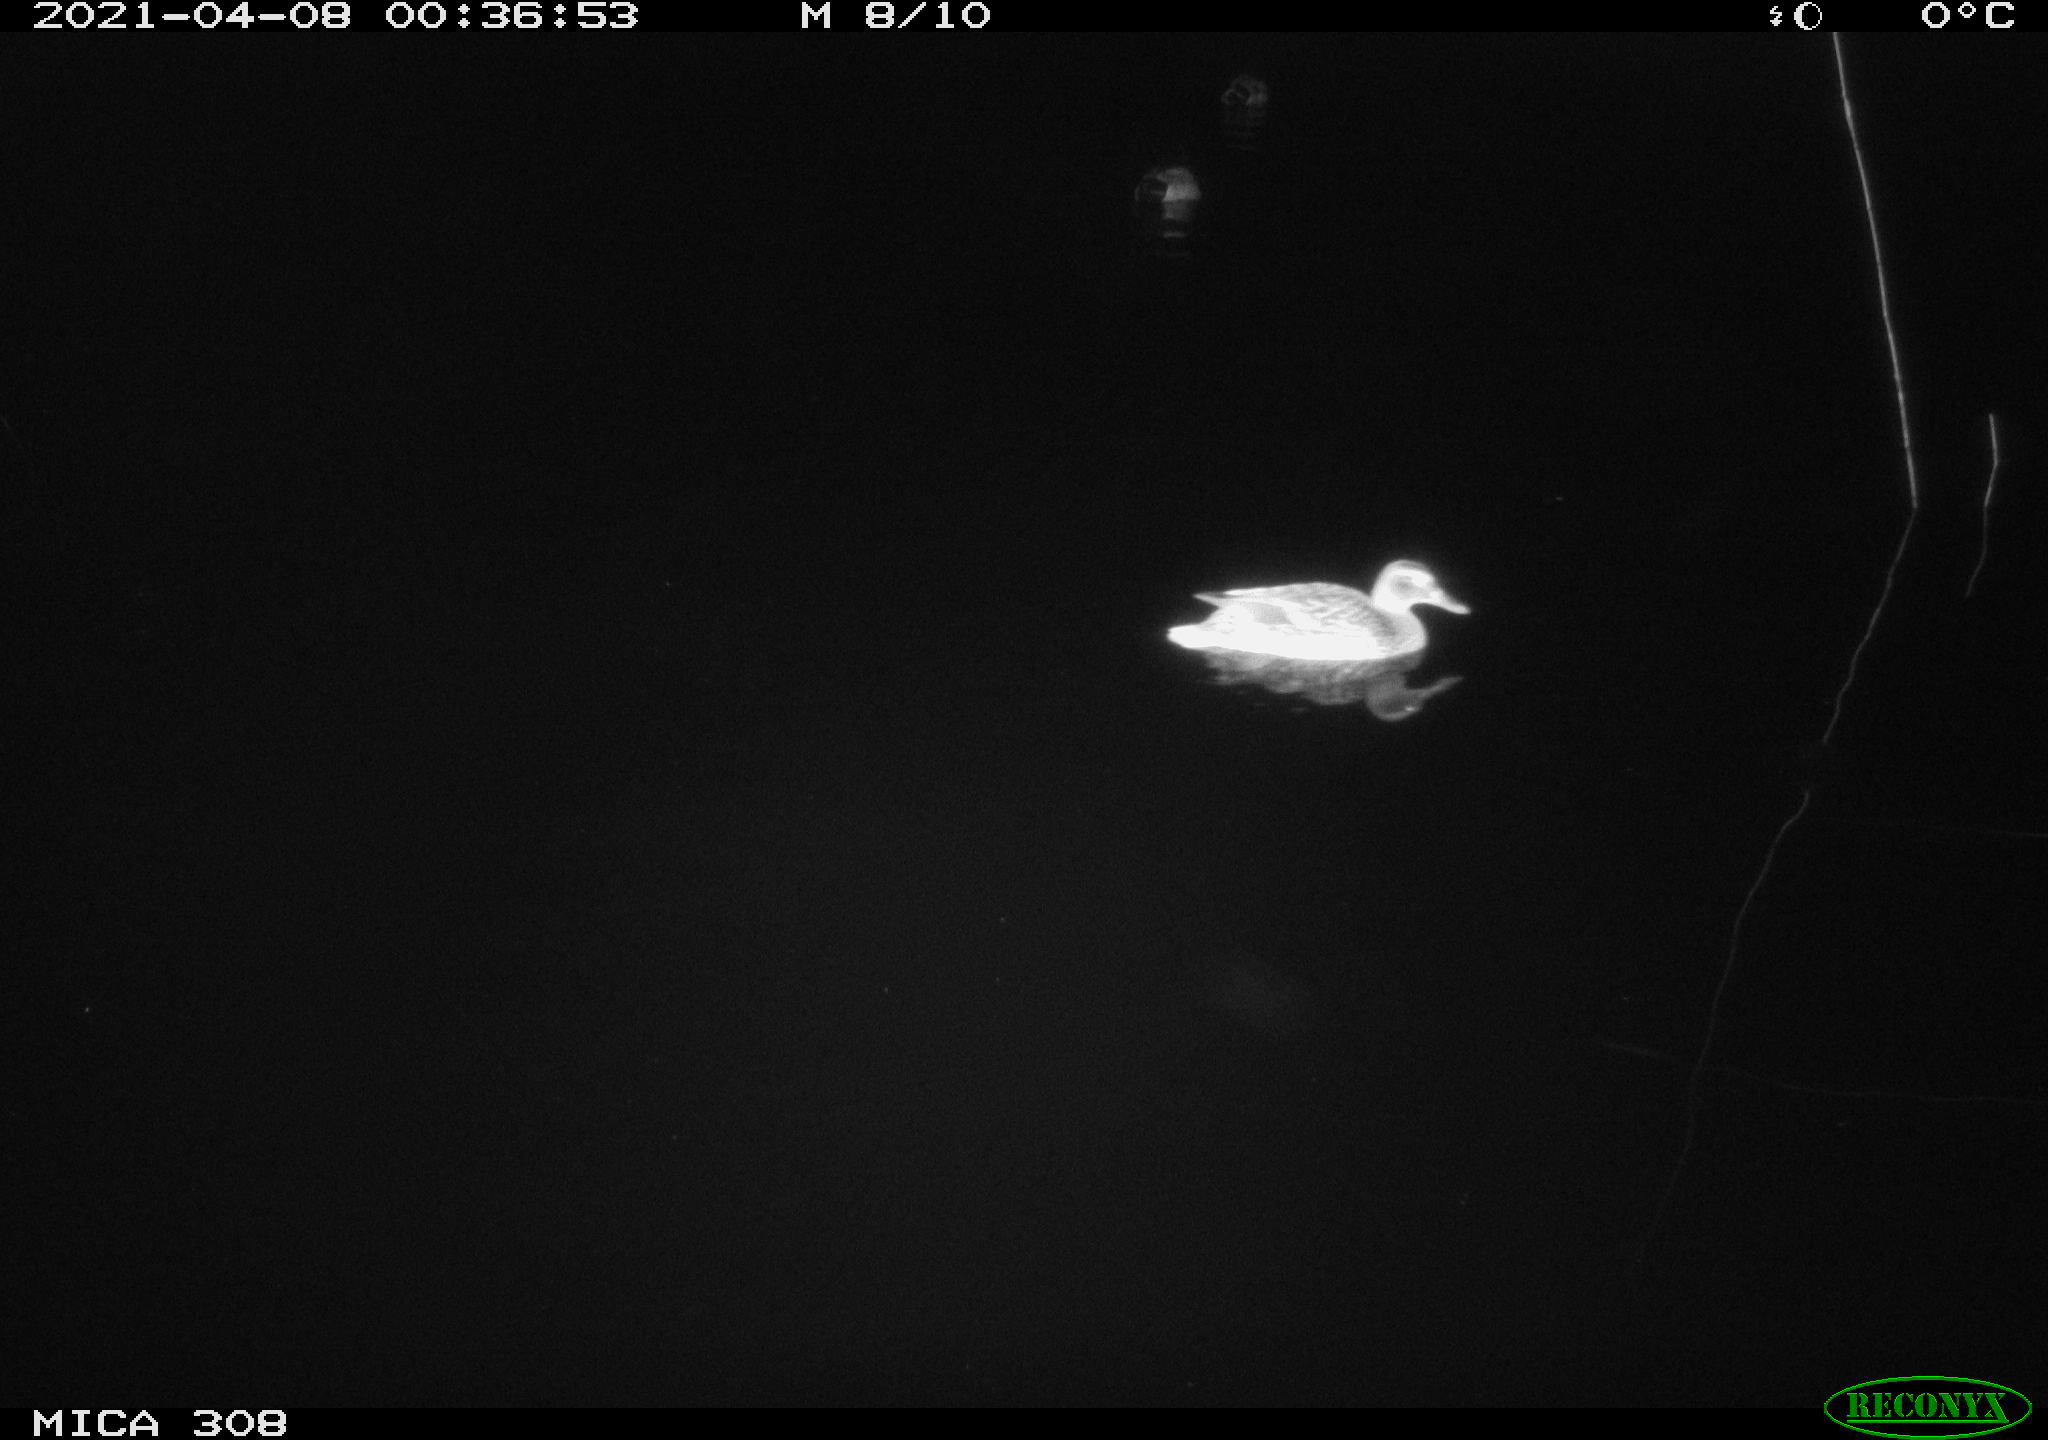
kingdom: Animalia
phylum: Chordata
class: Aves
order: Anseriformes
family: Anatidae
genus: Anas
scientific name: Anas platyrhynchos
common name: Mallard
